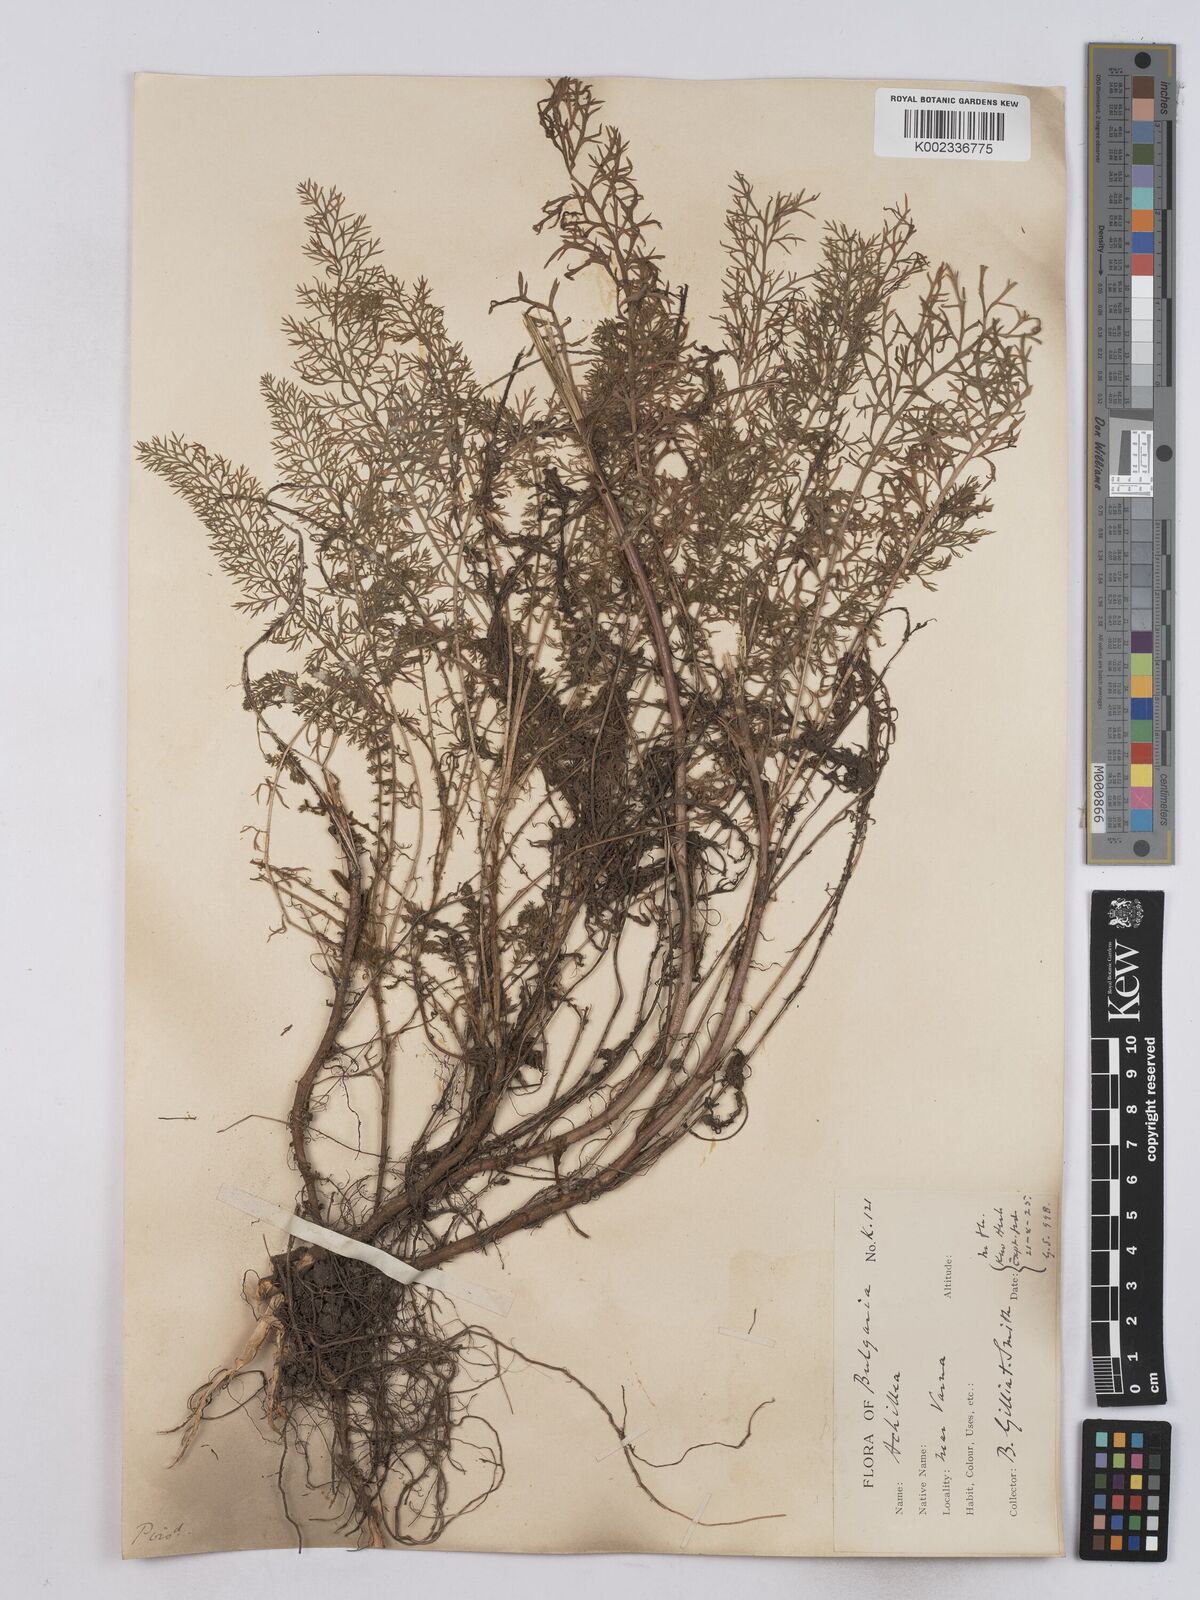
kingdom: Plantae
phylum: Tracheophyta
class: Magnoliopsida
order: Asterales
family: Asteraceae
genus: Achillea
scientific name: Achillea crithmifolia
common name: Yarrow
